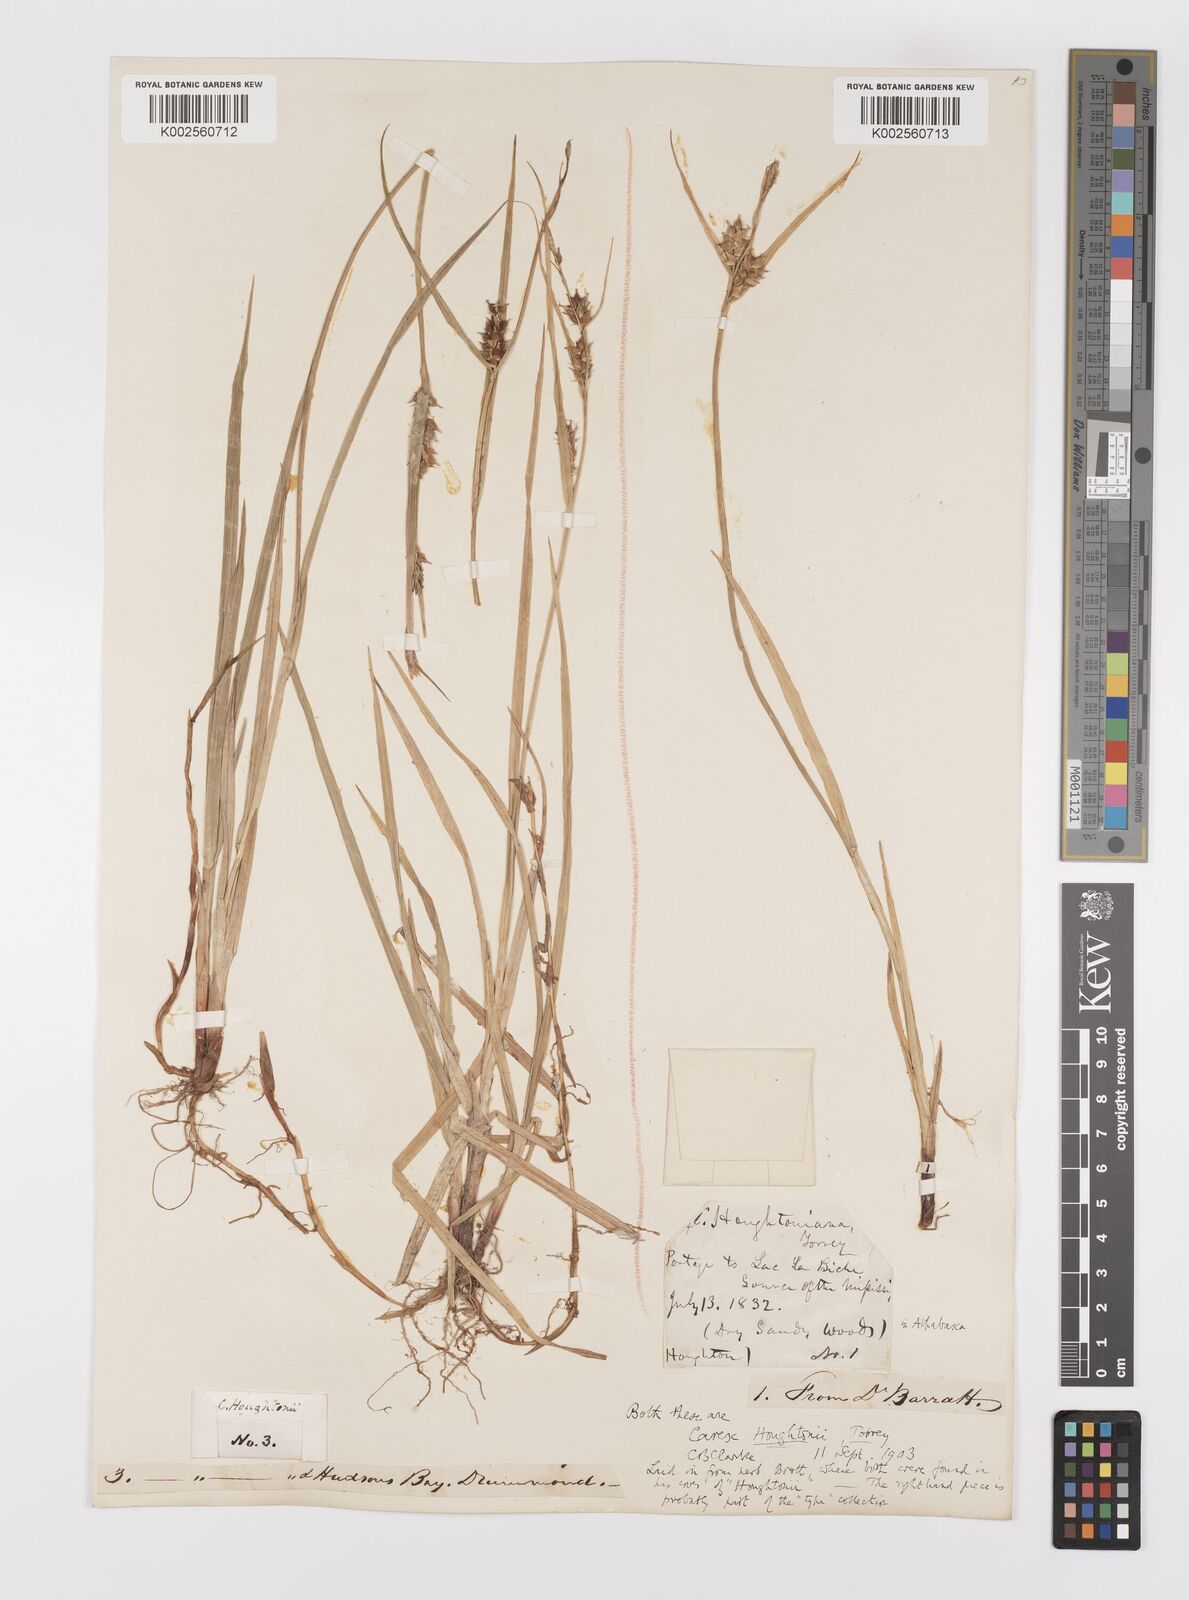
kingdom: Plantae
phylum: Tracheophyta
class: Liliopsida
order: Poales
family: Cyperaceae
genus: Carex
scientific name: Carex houghtoniana
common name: Houghton's sedge
